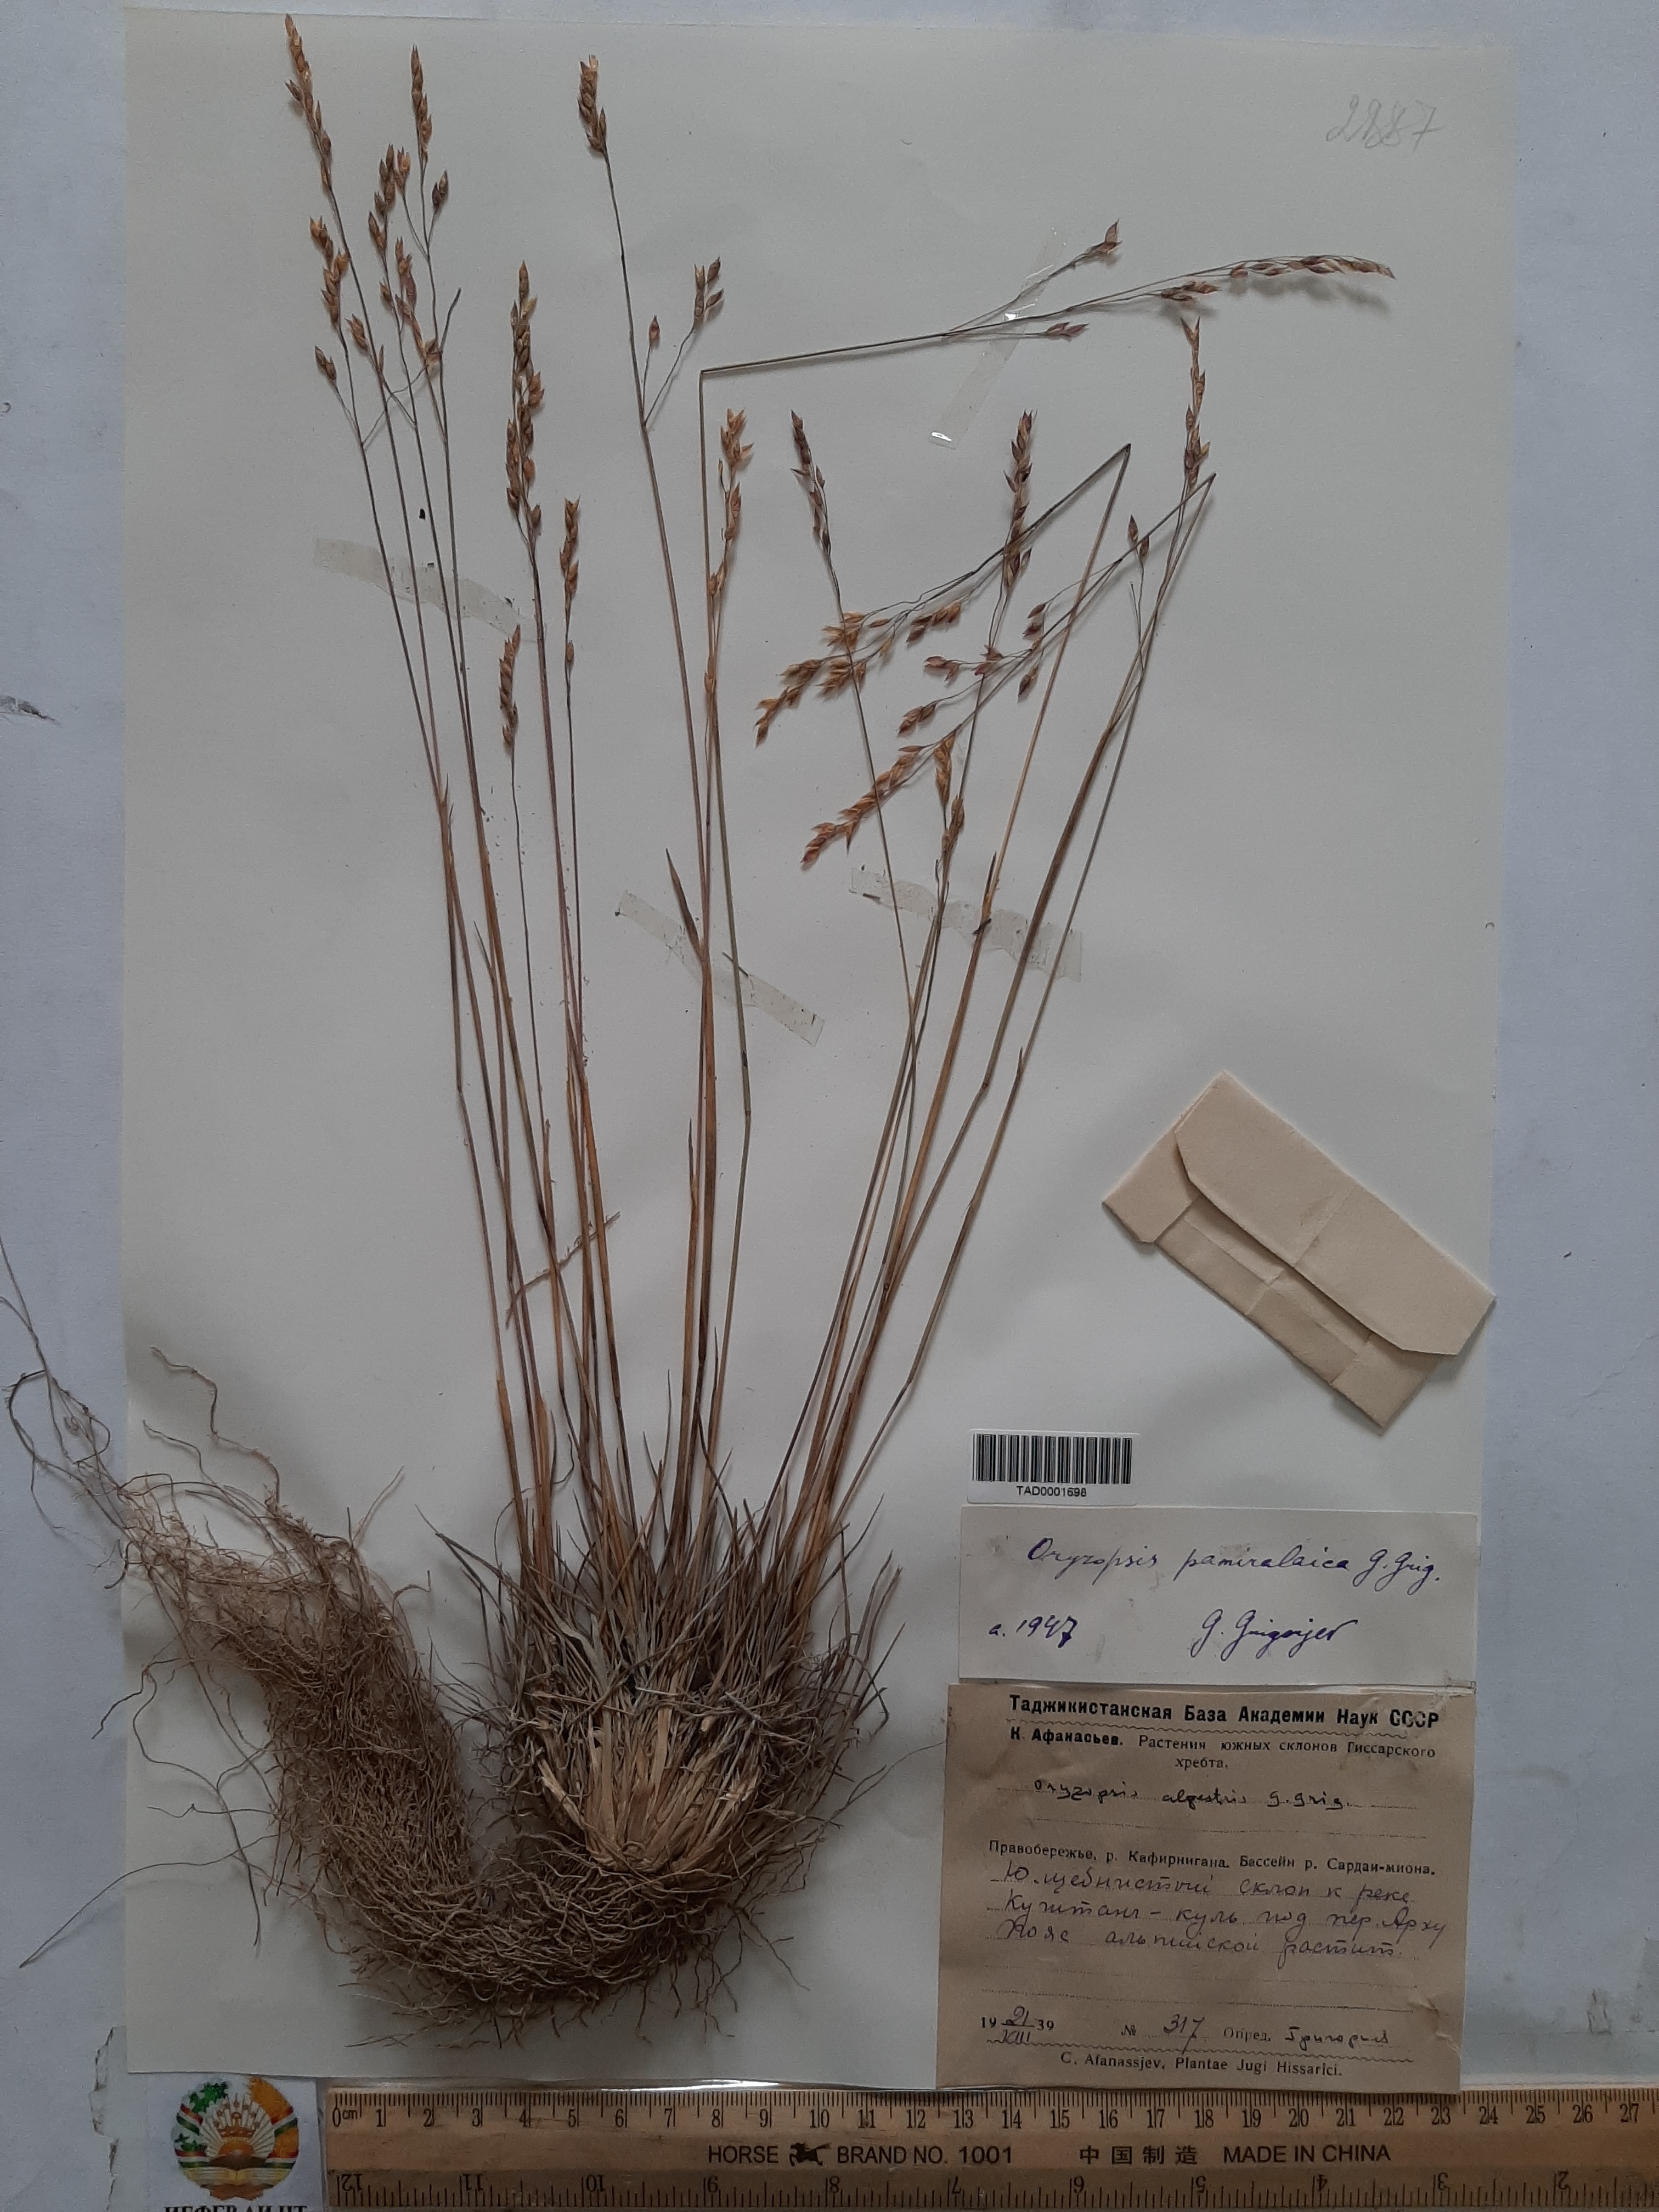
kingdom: Plantae
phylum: Tracheophyta
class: Liliopsida
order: Poales
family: Poaceae
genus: Piptatherum
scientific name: Piptatherum pamiralaicum
